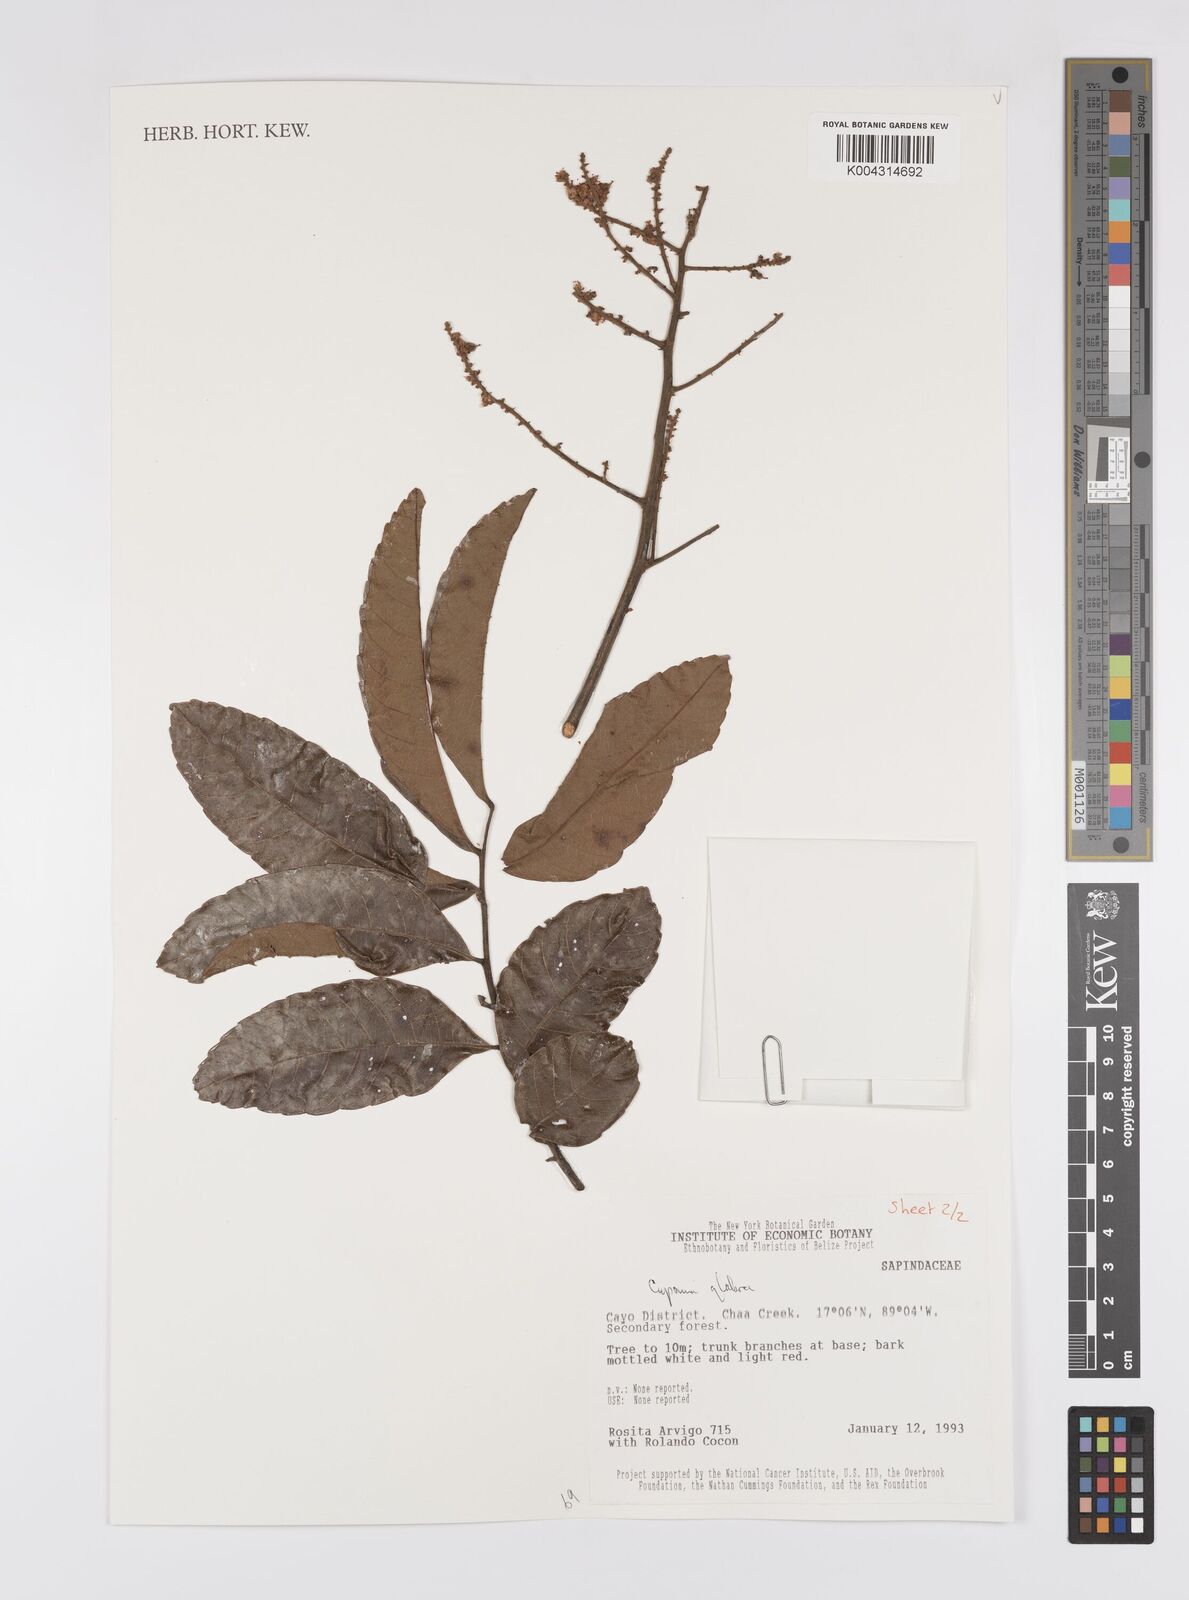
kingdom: Plantae
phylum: Tracheophyta
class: Magnoliopsida
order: Sapindales
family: Sapindaceae
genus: Cupania
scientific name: Cupania
